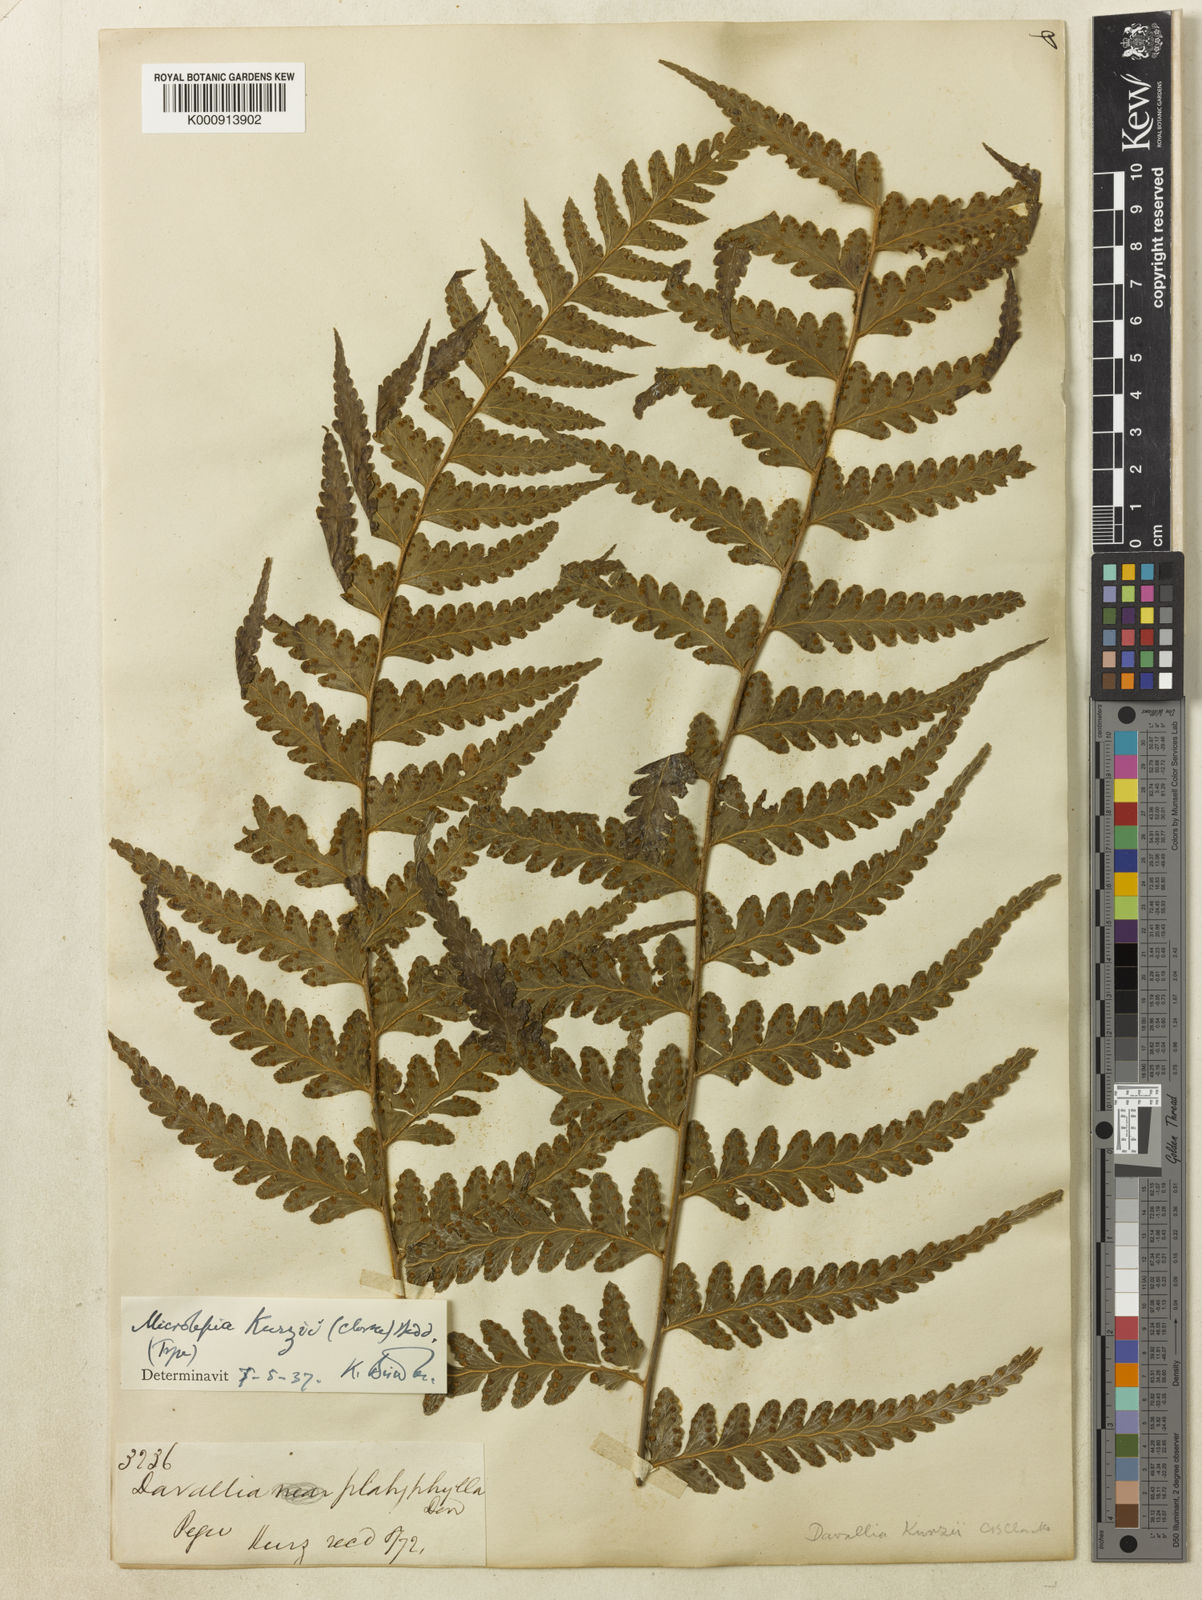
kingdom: Plantae
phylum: Tracheophyta
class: Polypodiopsida
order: Polypodiales
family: Dennstaedtiaceae
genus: Microlepia
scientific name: Microlepia kurzii
